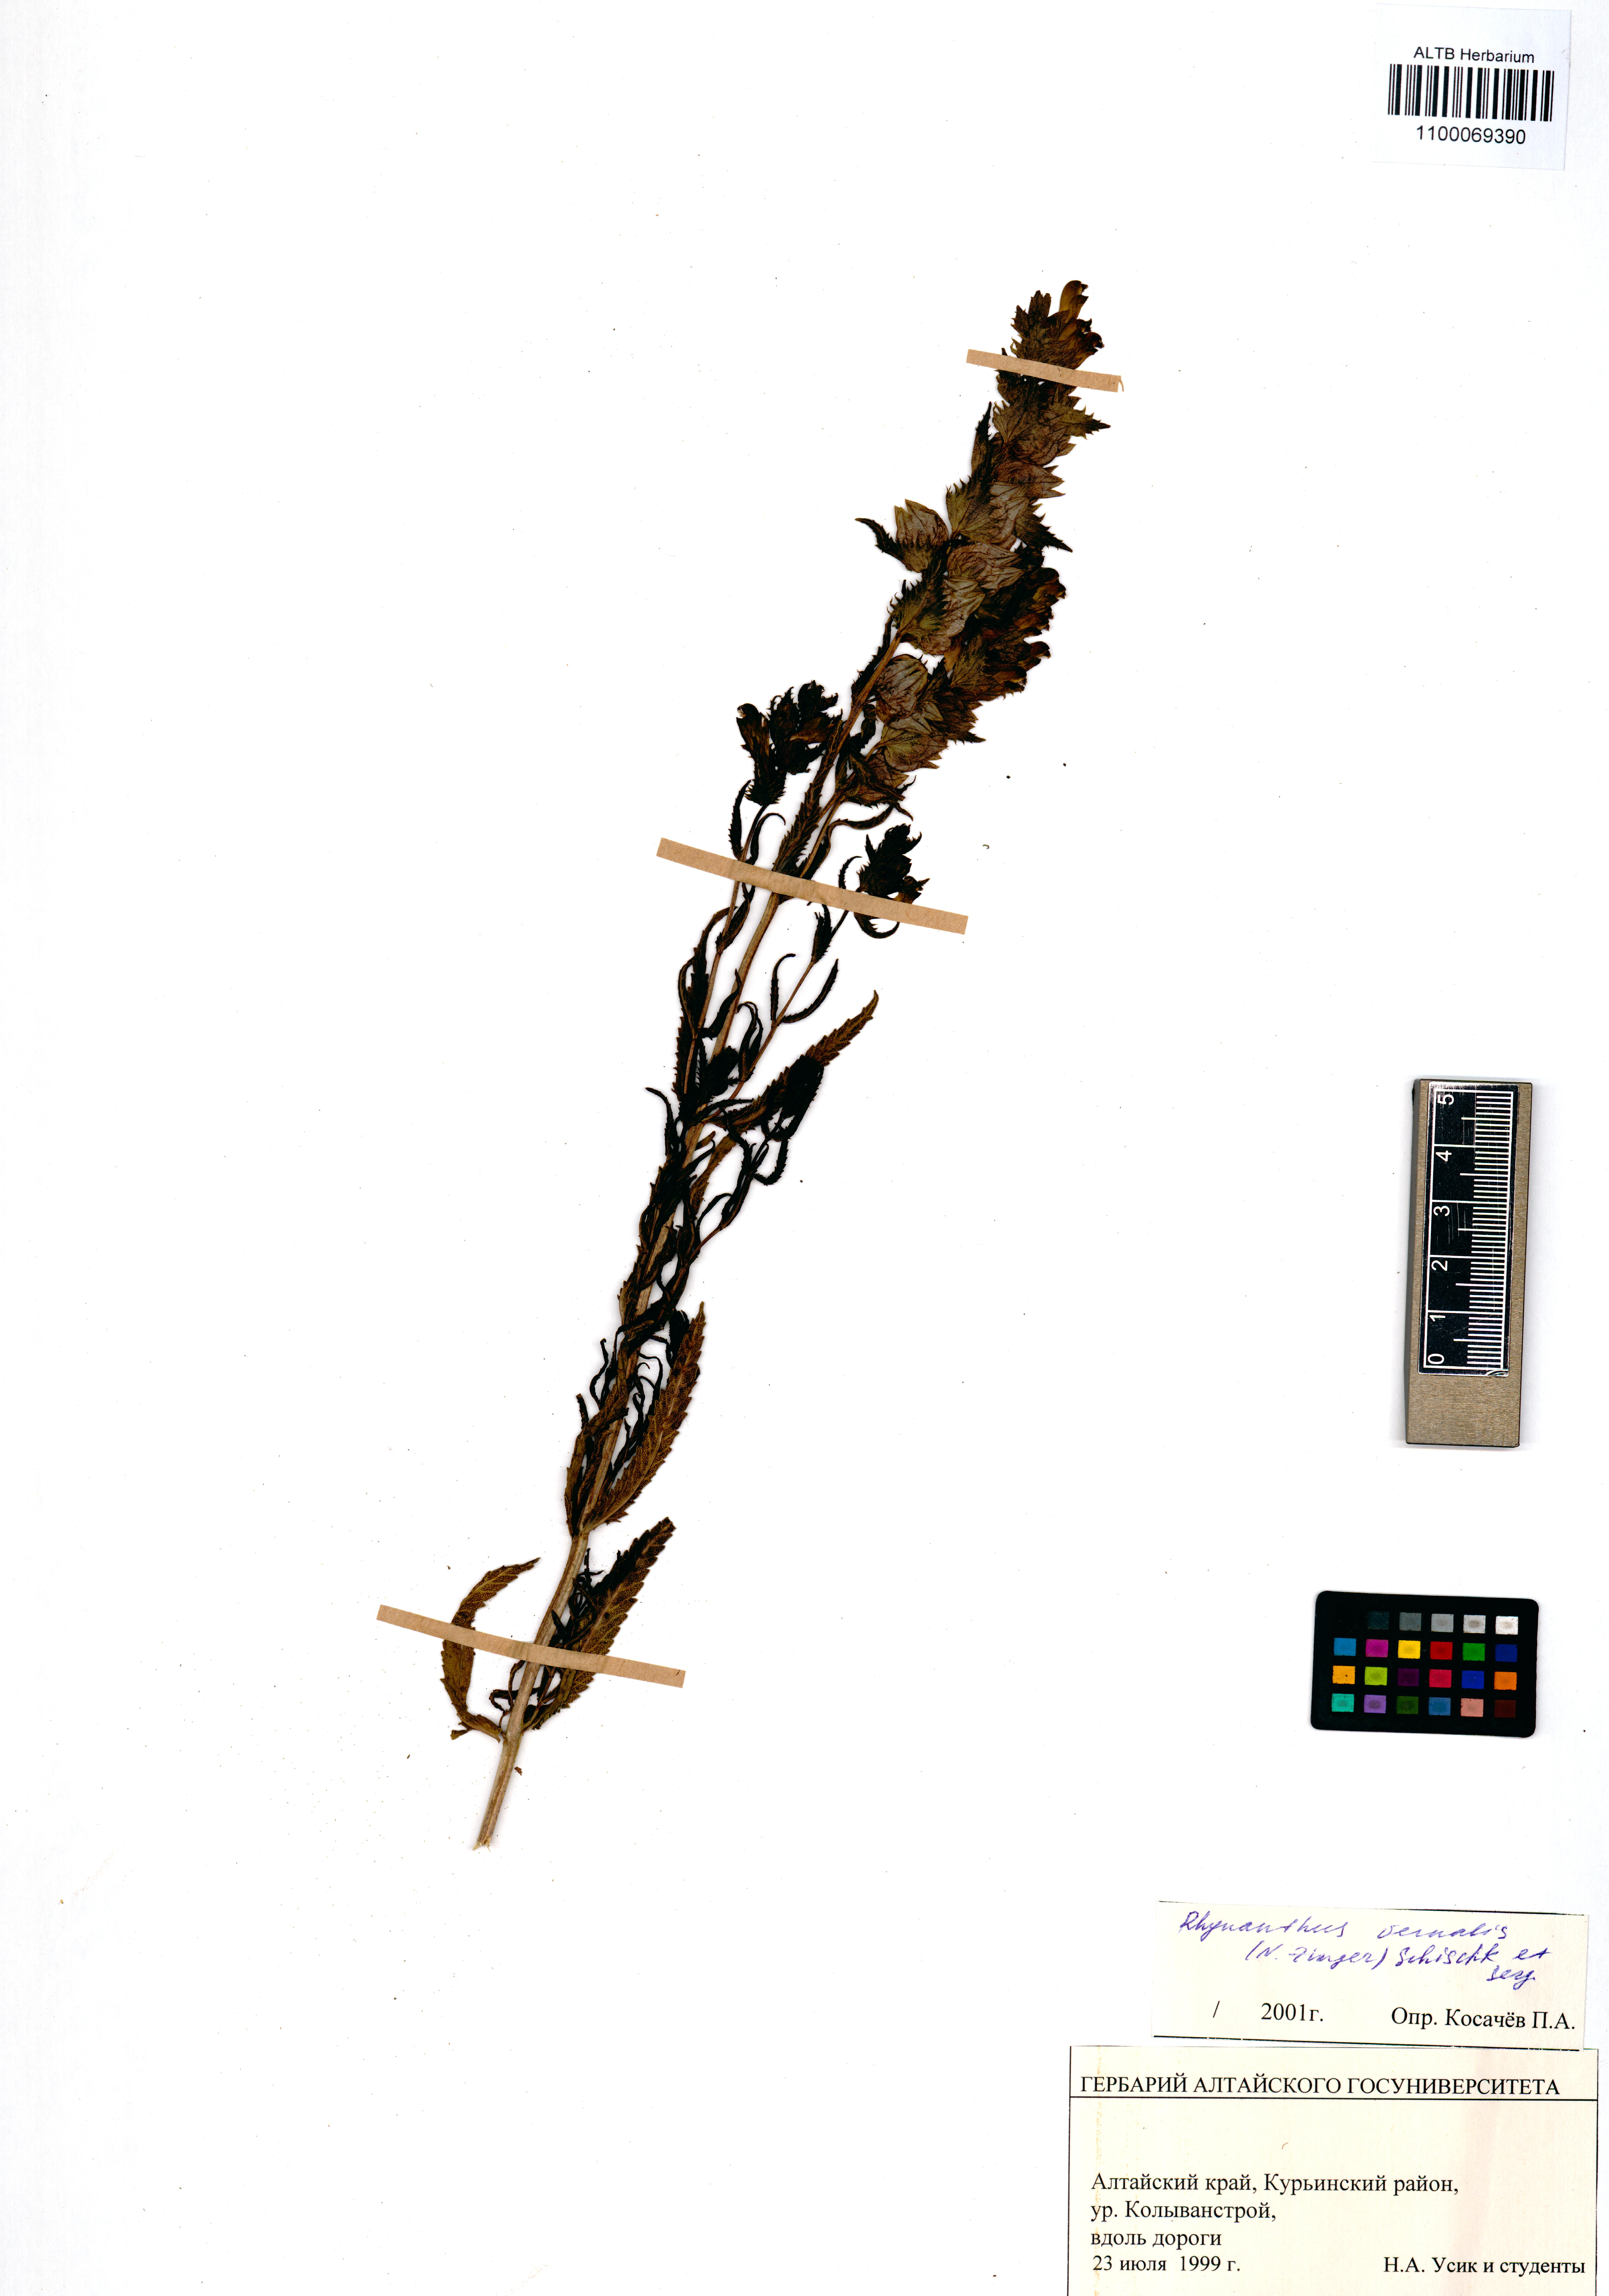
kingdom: Plantae
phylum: Tracheophyta
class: Magnoliopsida
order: Lamiales
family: Orobanchaceae
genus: Rhinanthus
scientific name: Rhinanthus serotinus
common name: Late-flowering yellow rattle
